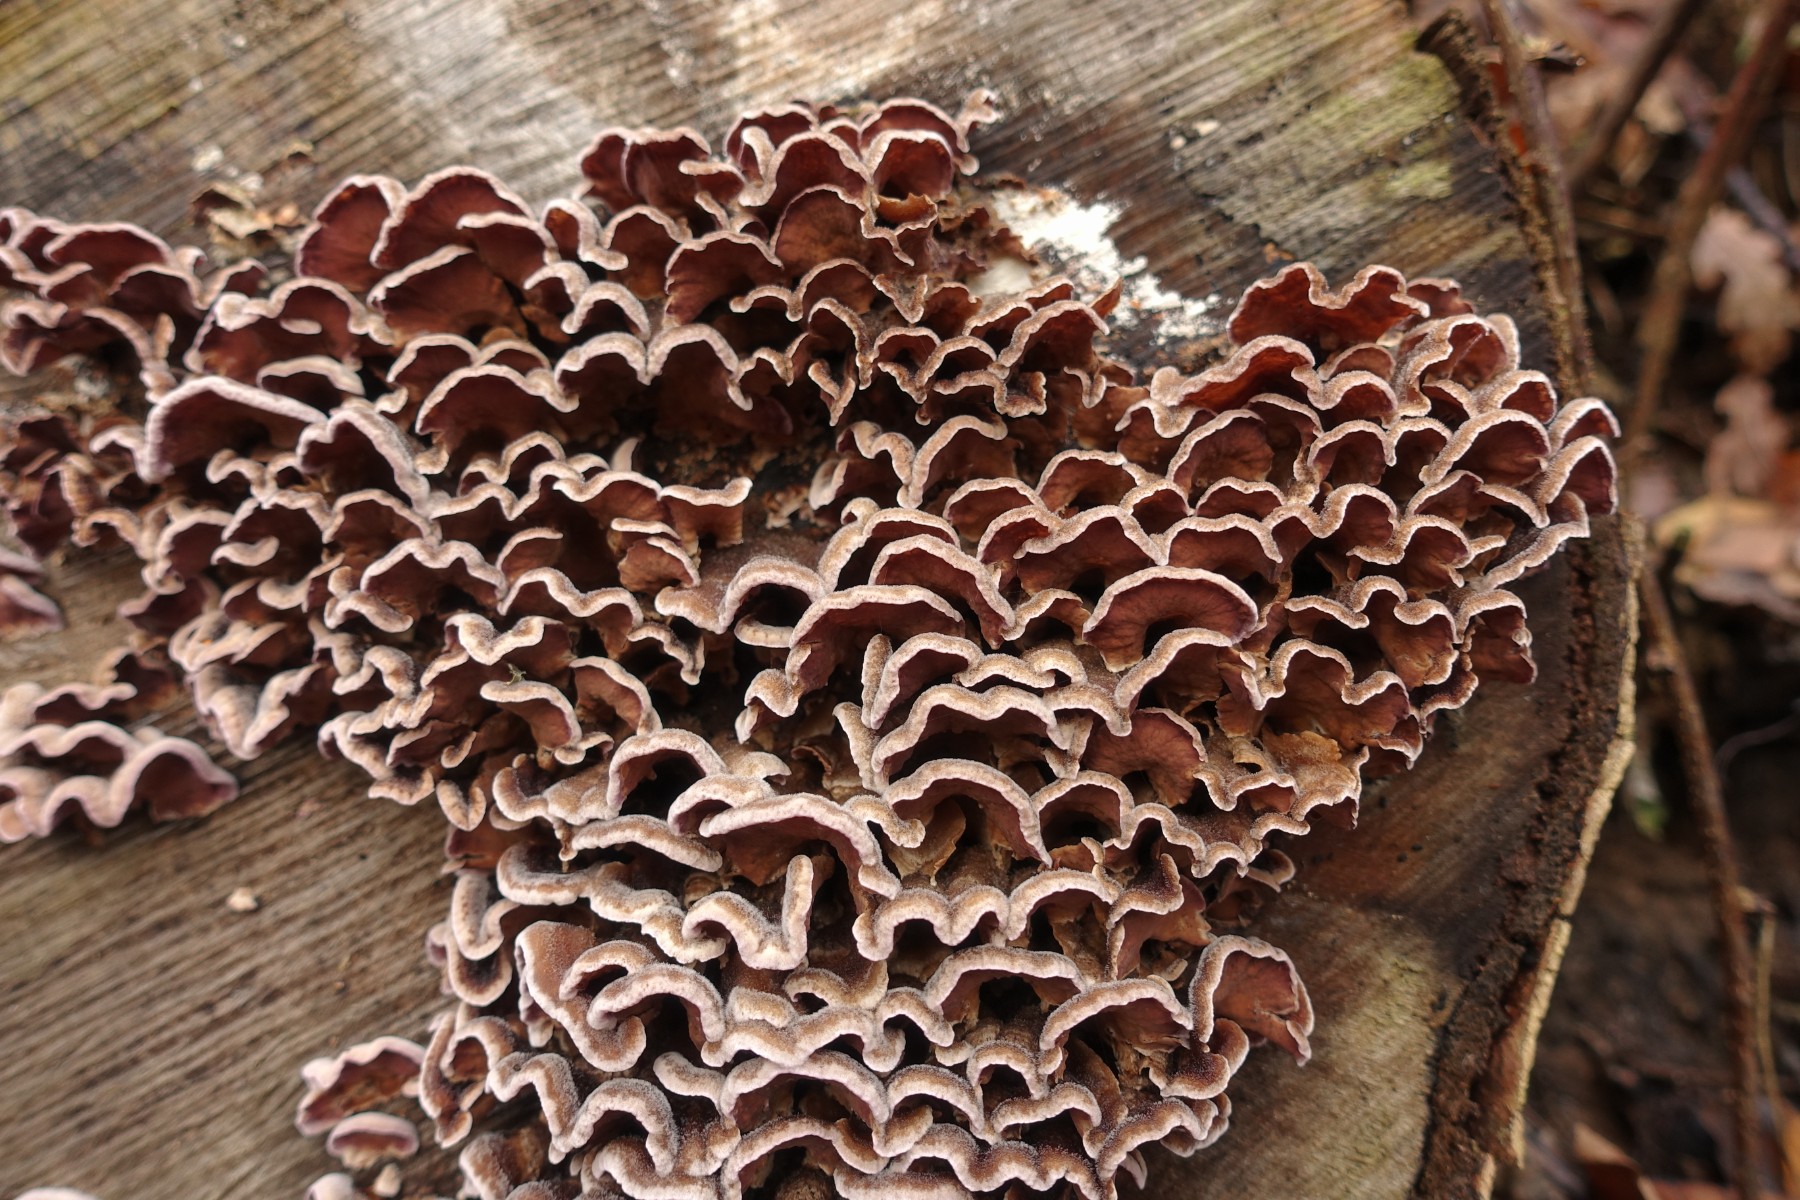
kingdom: Fungi
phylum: Basidiomycota
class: Agaricomycetes
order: Agaricales
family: Cyphellaceae
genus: Chondrostereum
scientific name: Chondrostereum purpureum
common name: purpurlædersvamp
